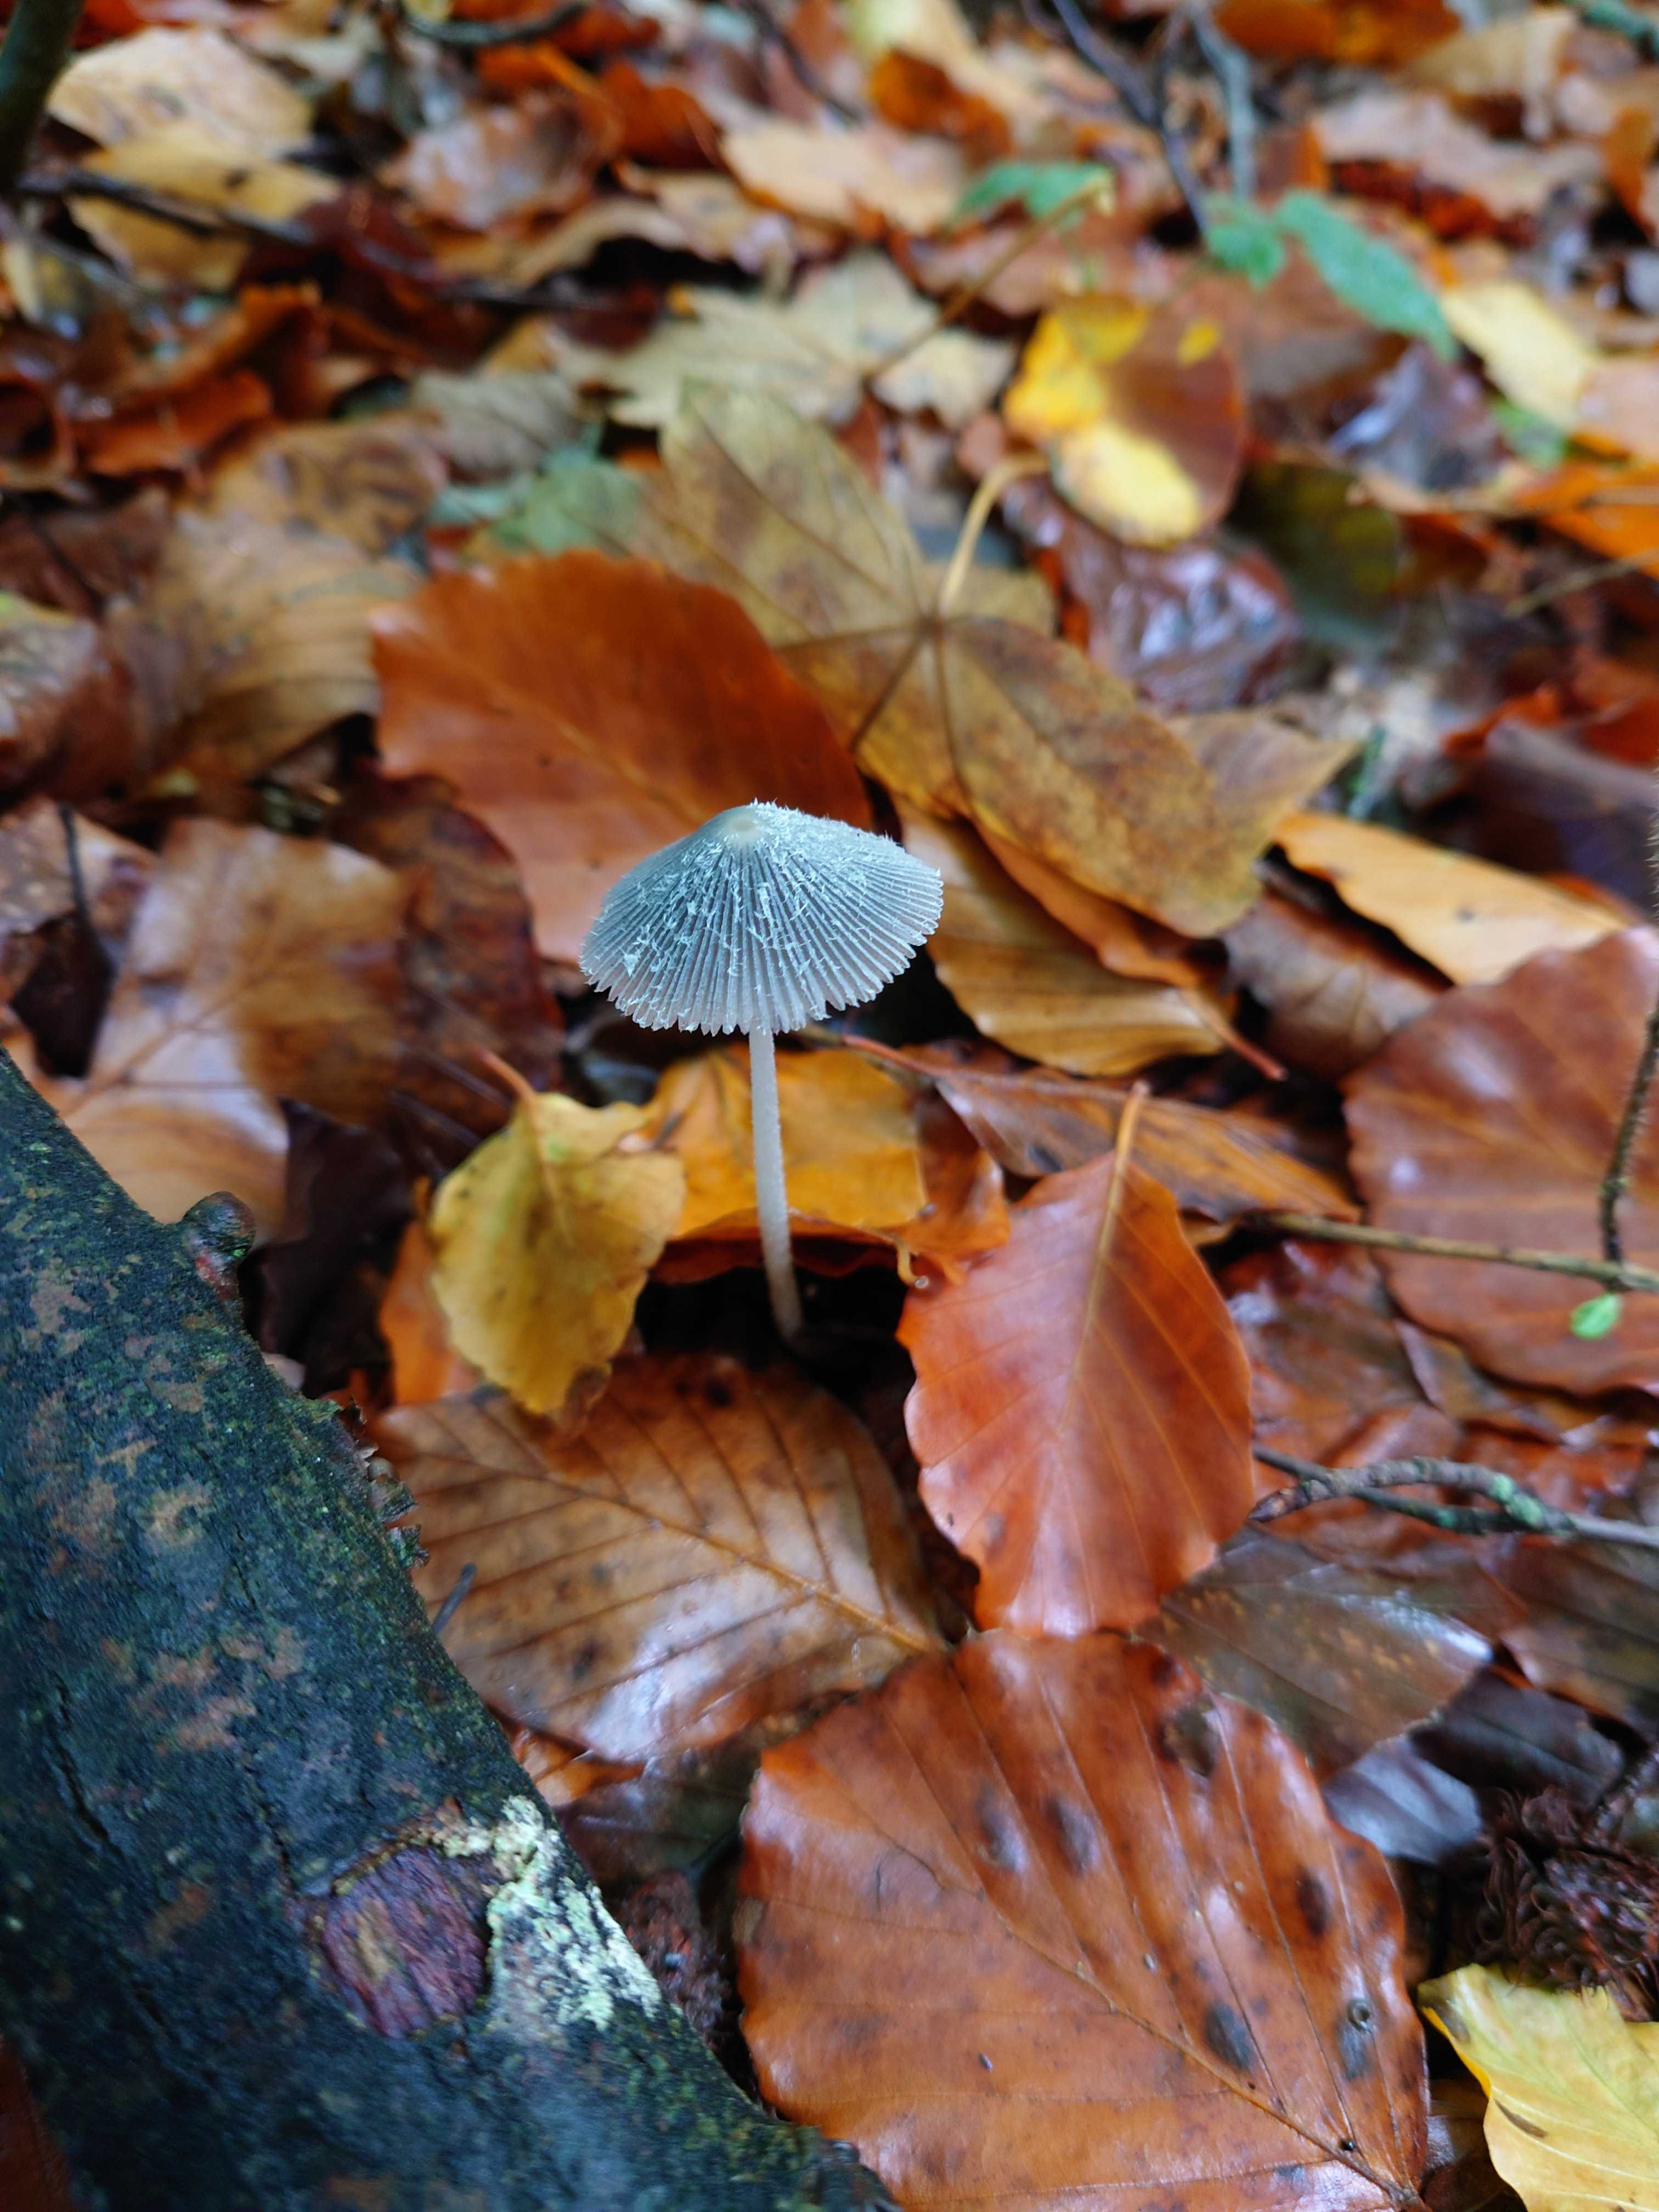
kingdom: Fungi
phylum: Basidiomycota
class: Agaricomycetes
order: Agaricales
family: Psathyrellaceae
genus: Coprinopsis
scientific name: Coprinopsis lagopus
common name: dunstokket blækhat
